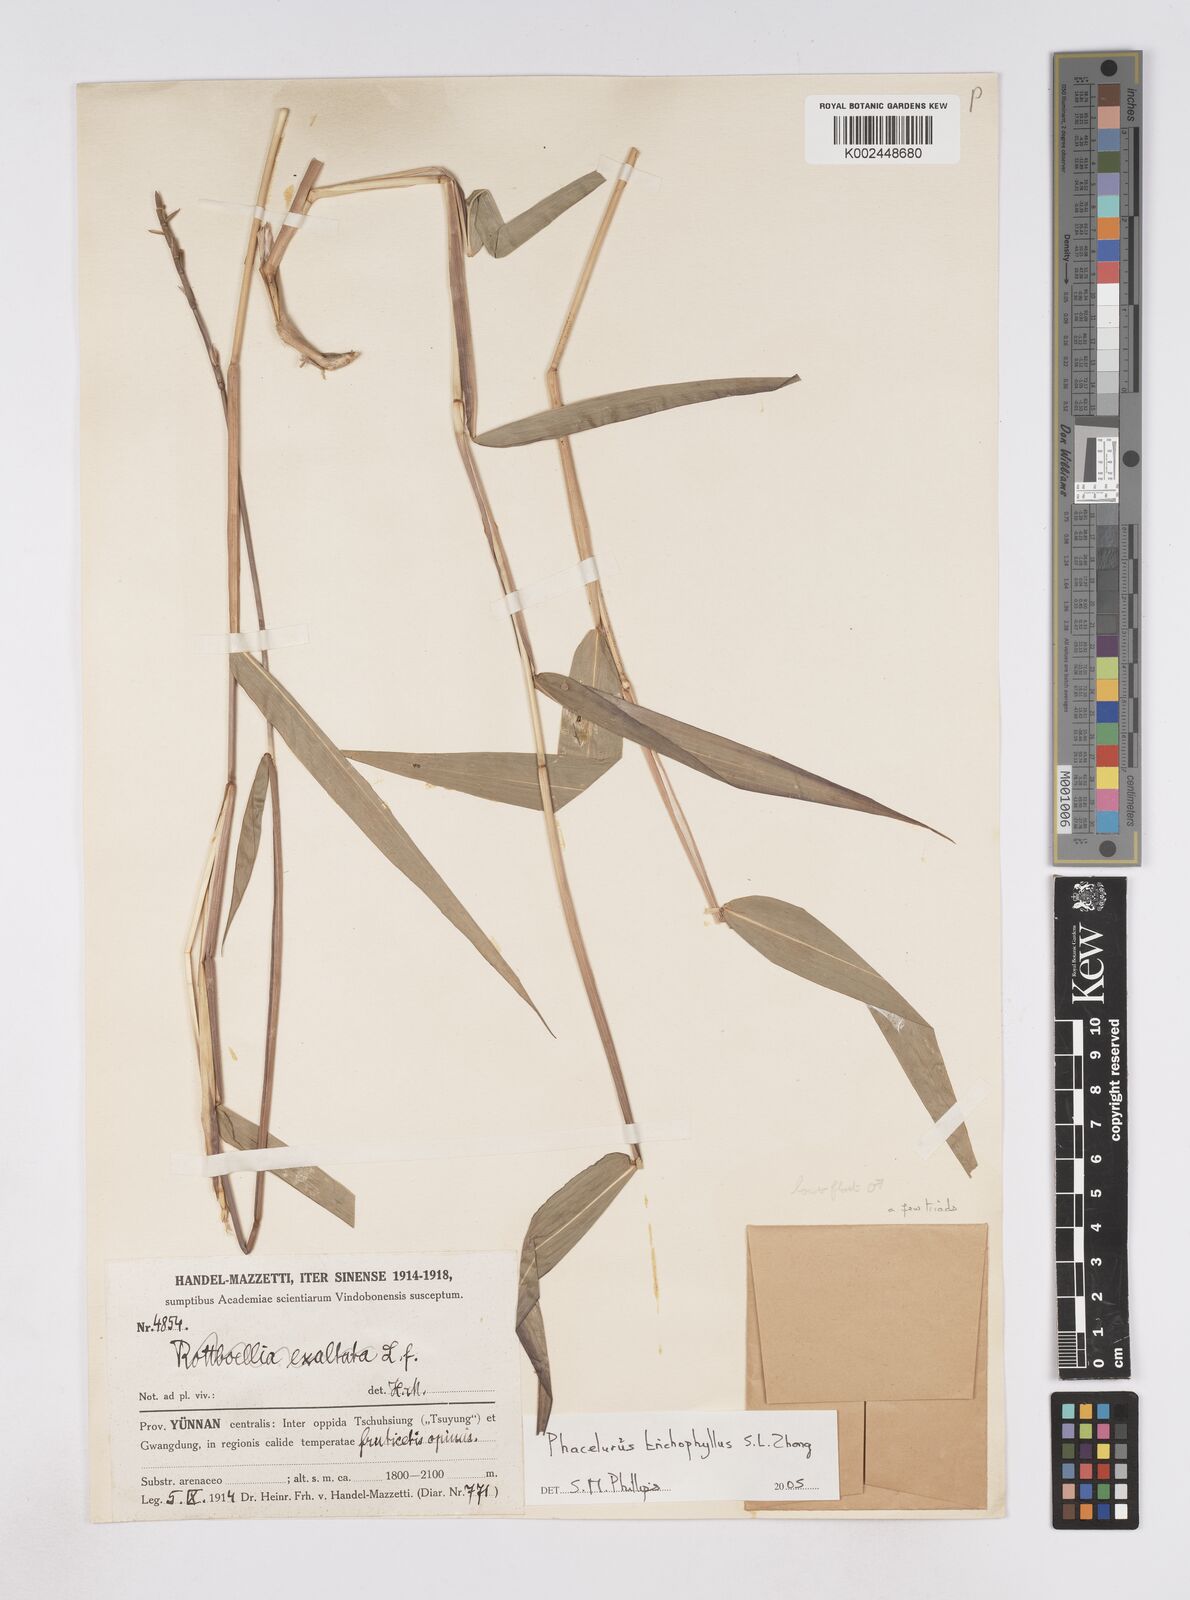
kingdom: Plantae
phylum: Tracheophyta
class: Liliopsida
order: Poales
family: Poaceae
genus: Phacelurus
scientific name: Phacelurus trichophyllus
